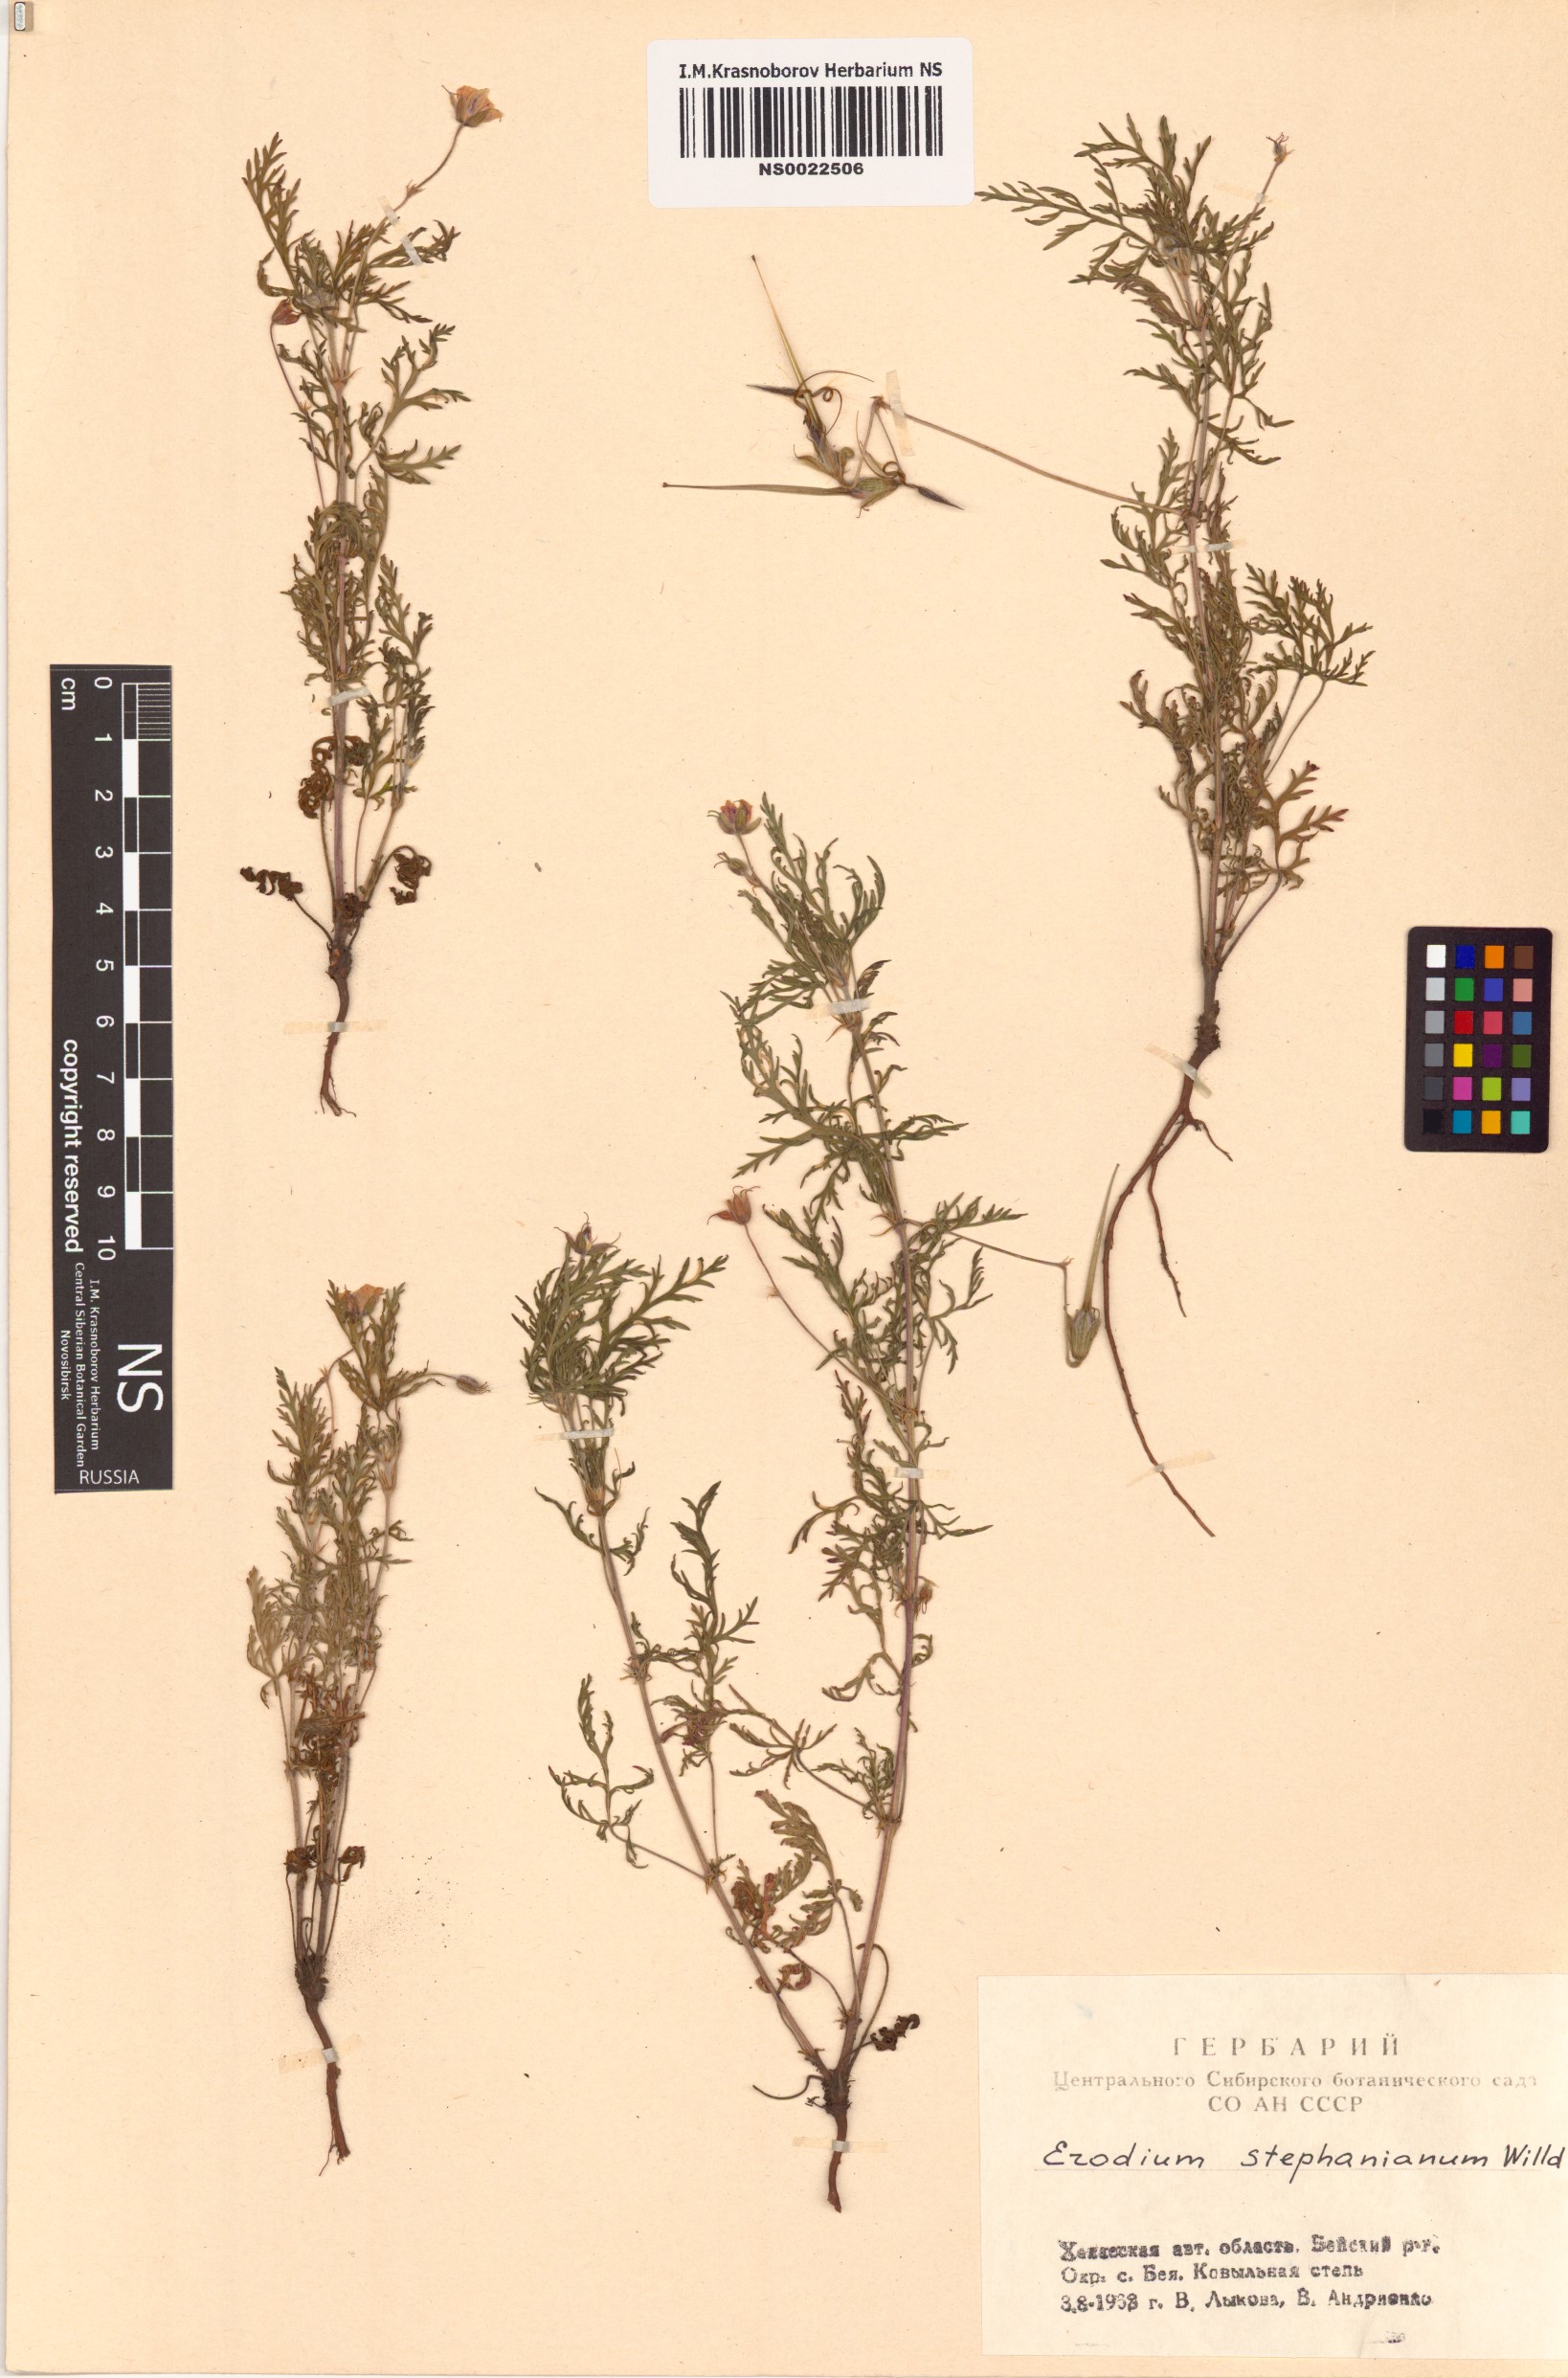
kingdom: Plantae
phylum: Tracheophyta
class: Magnoliopsida
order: Geraniales
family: Geraniaceae
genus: Erodium
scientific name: Erodium stephanianum
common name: Stephen's stork's bill
